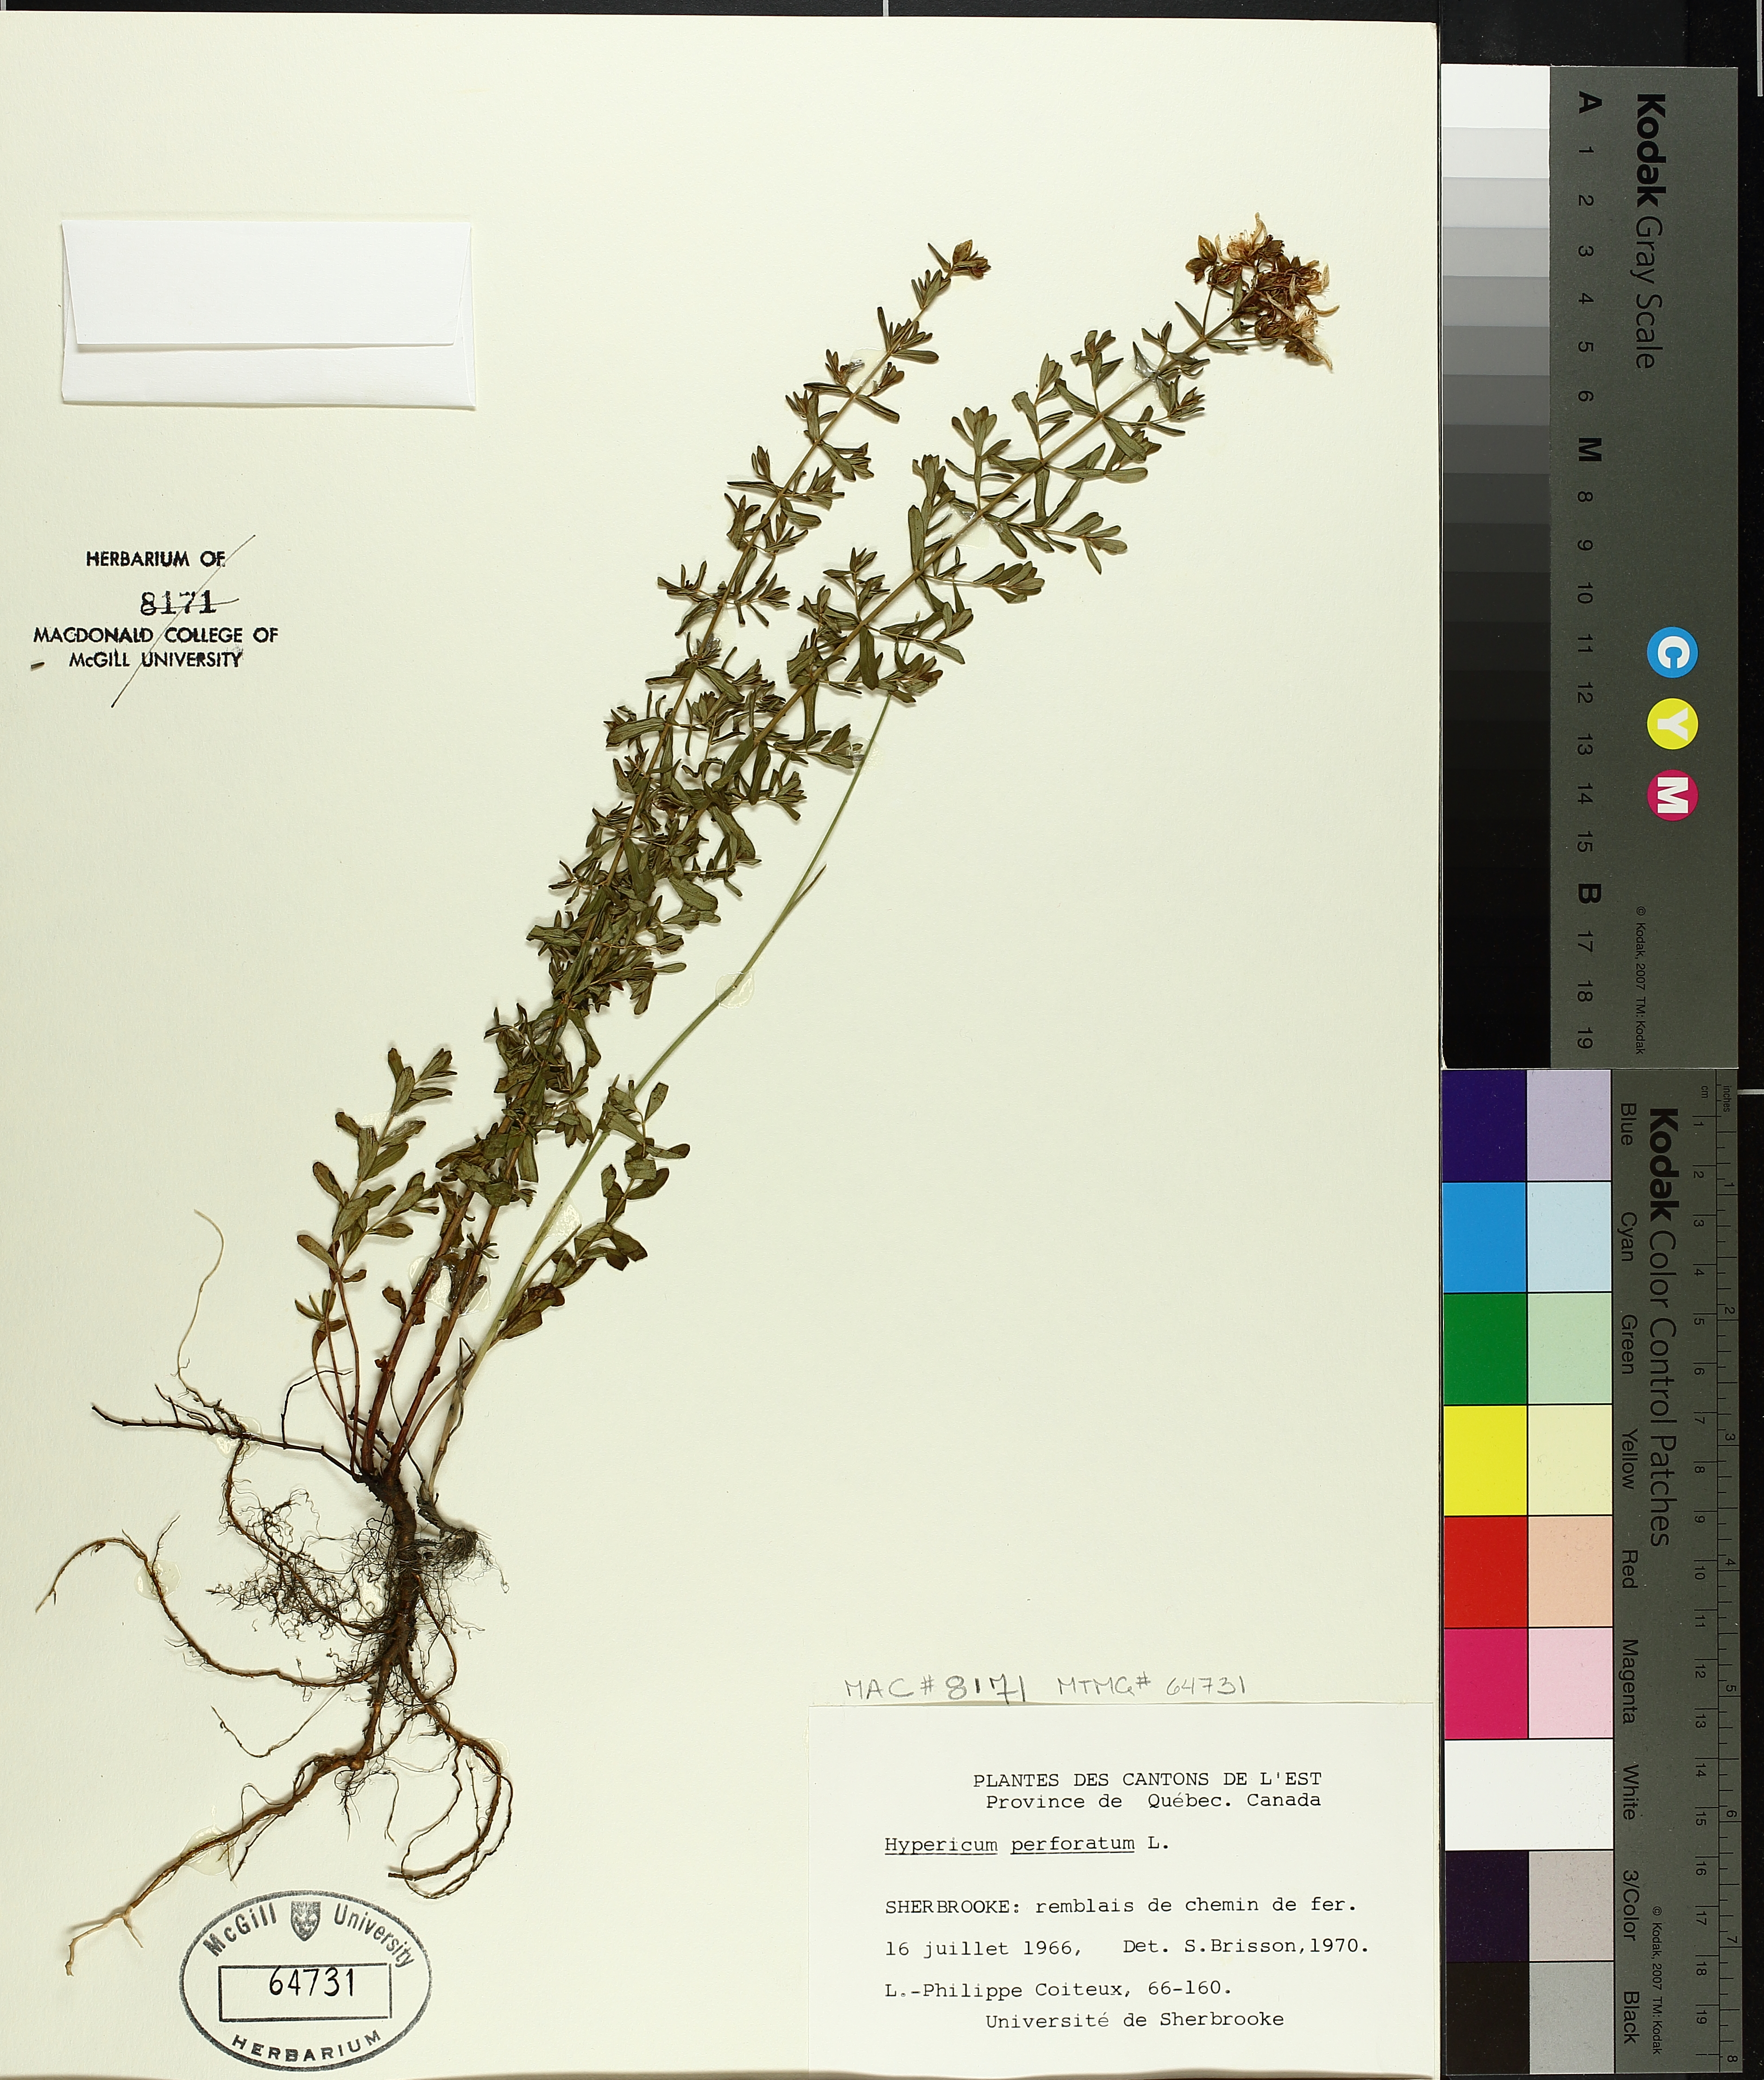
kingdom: Plantae
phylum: Tracheophyta
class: Magnoliopsida
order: Malpighiales
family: Hypericaceae
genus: Hypericum
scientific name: Hypericum perforatum
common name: Common st. johnswort
